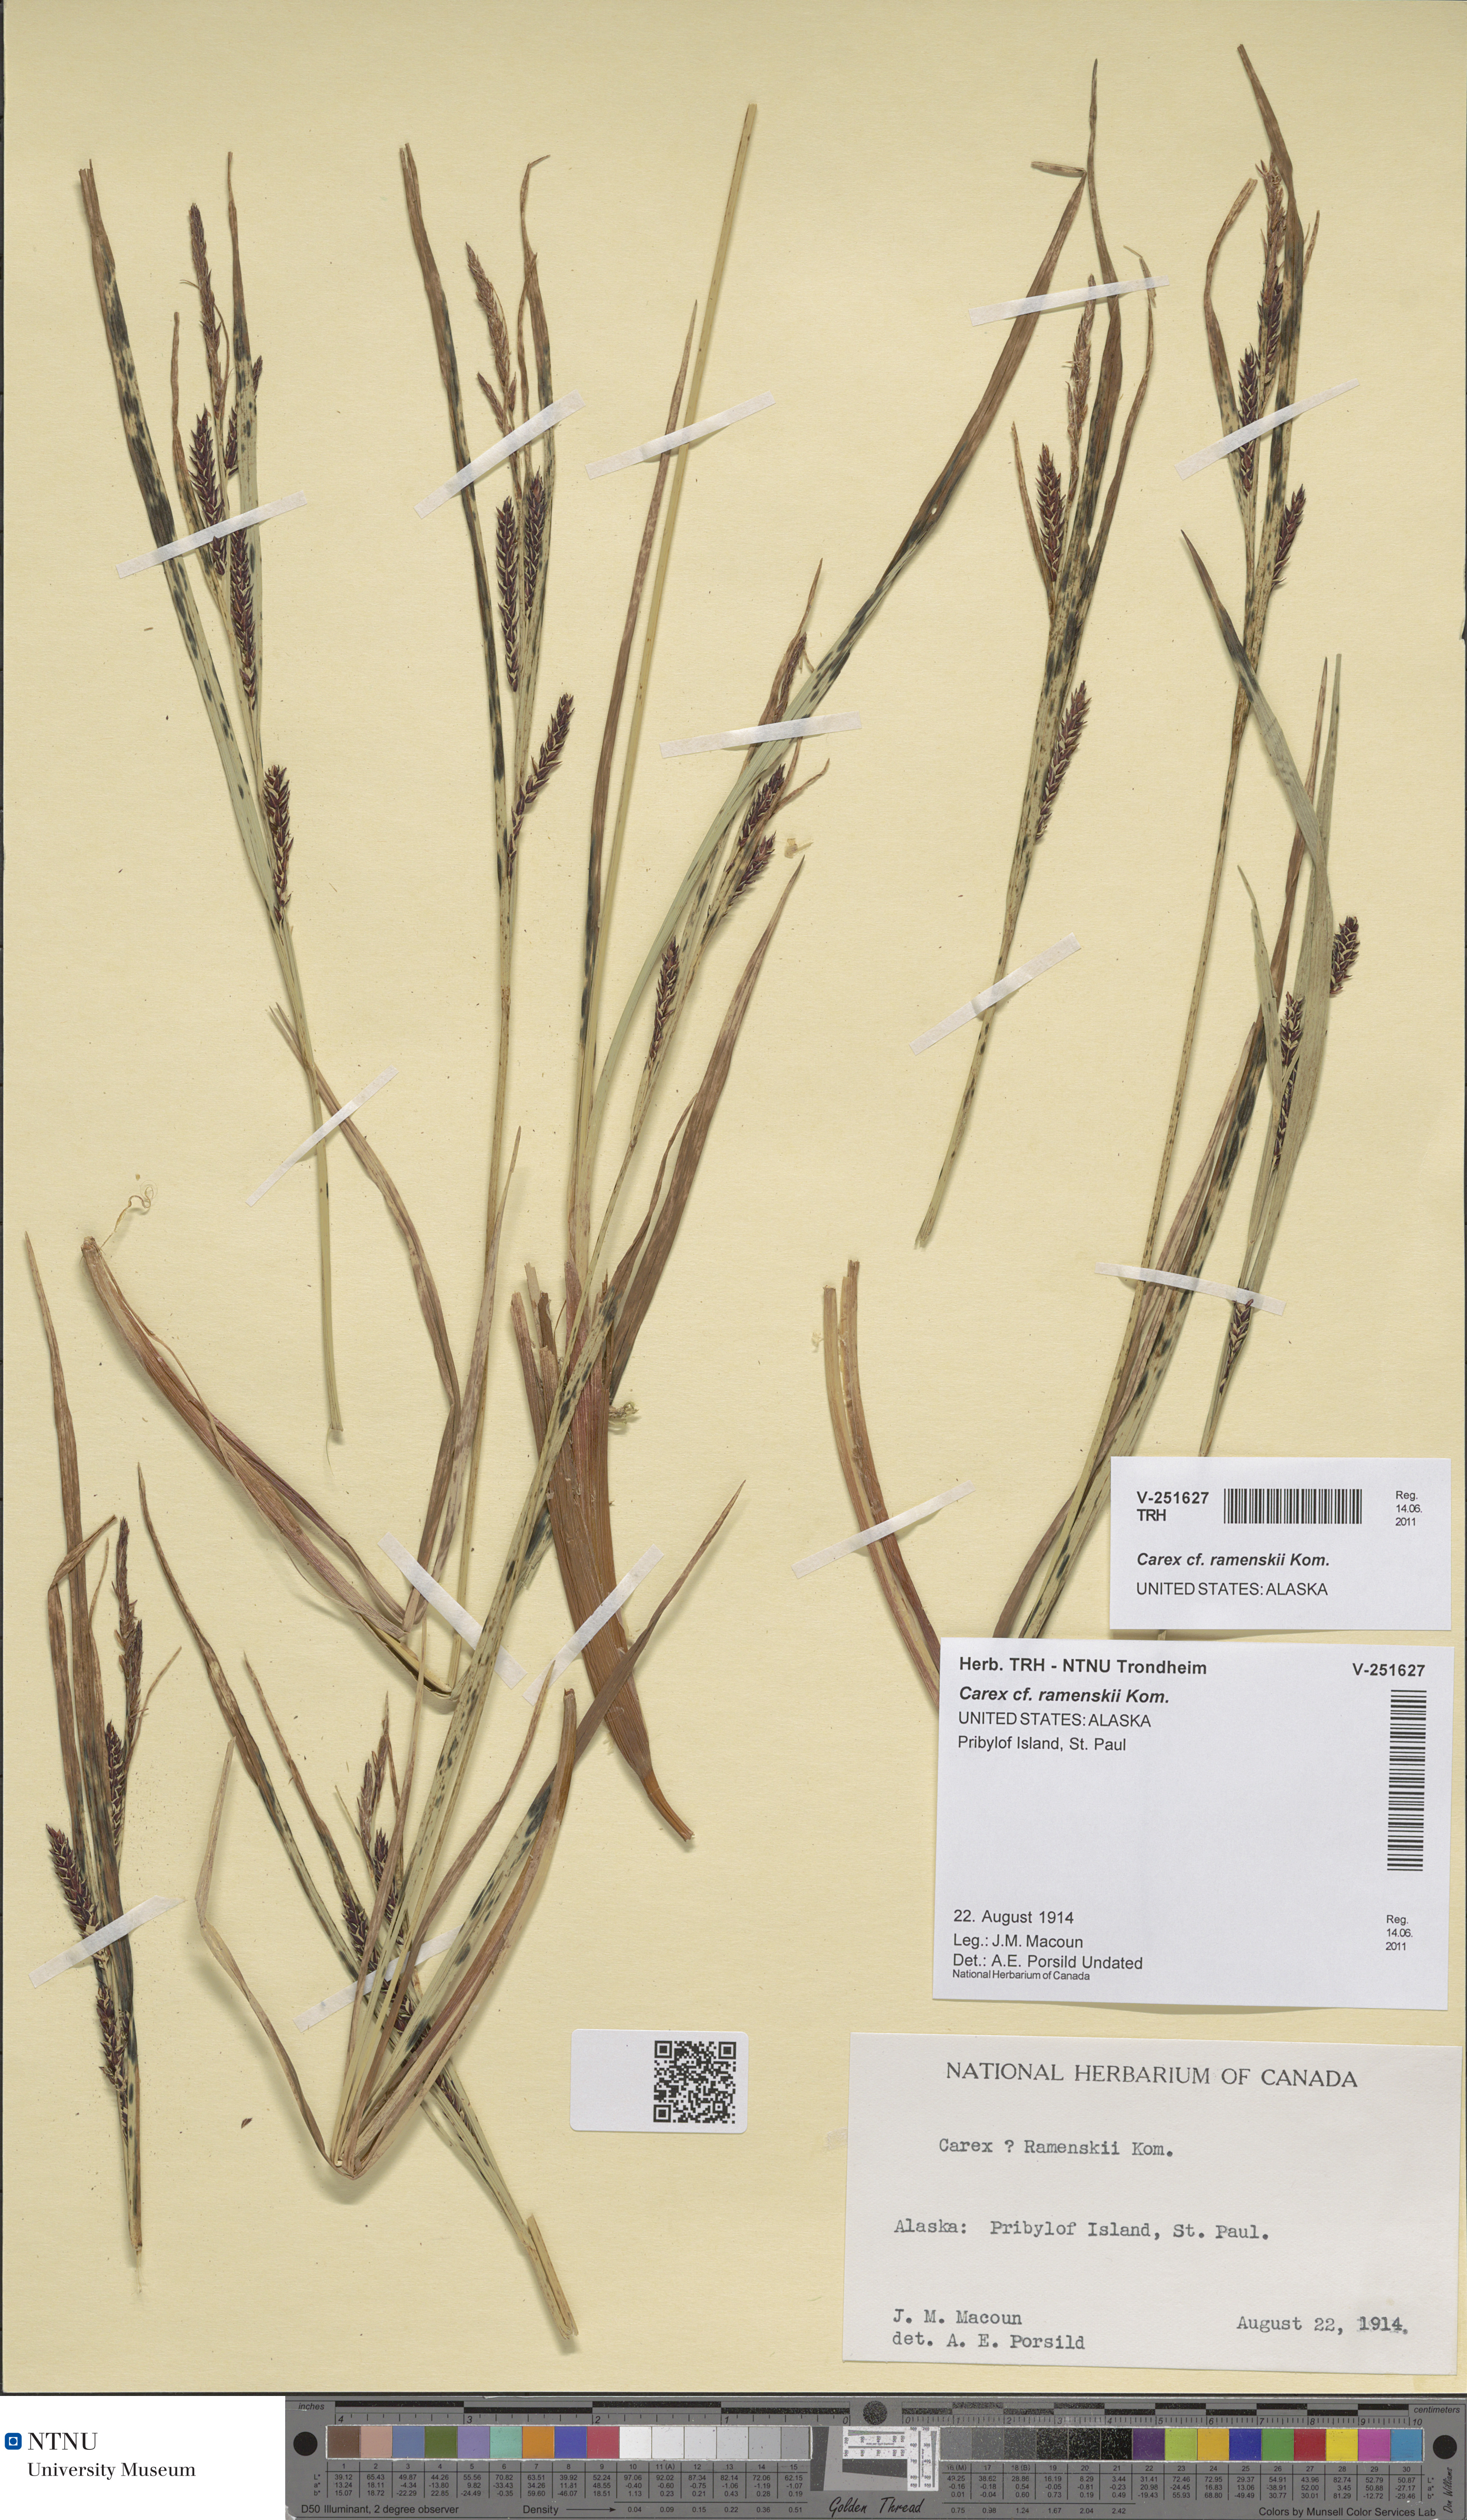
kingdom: Plantae
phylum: Tracheophyta
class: Liliopsida
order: Poales
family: Cyperaceae
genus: Carex
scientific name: Carex ramenskii
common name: Ramensk's sedge
